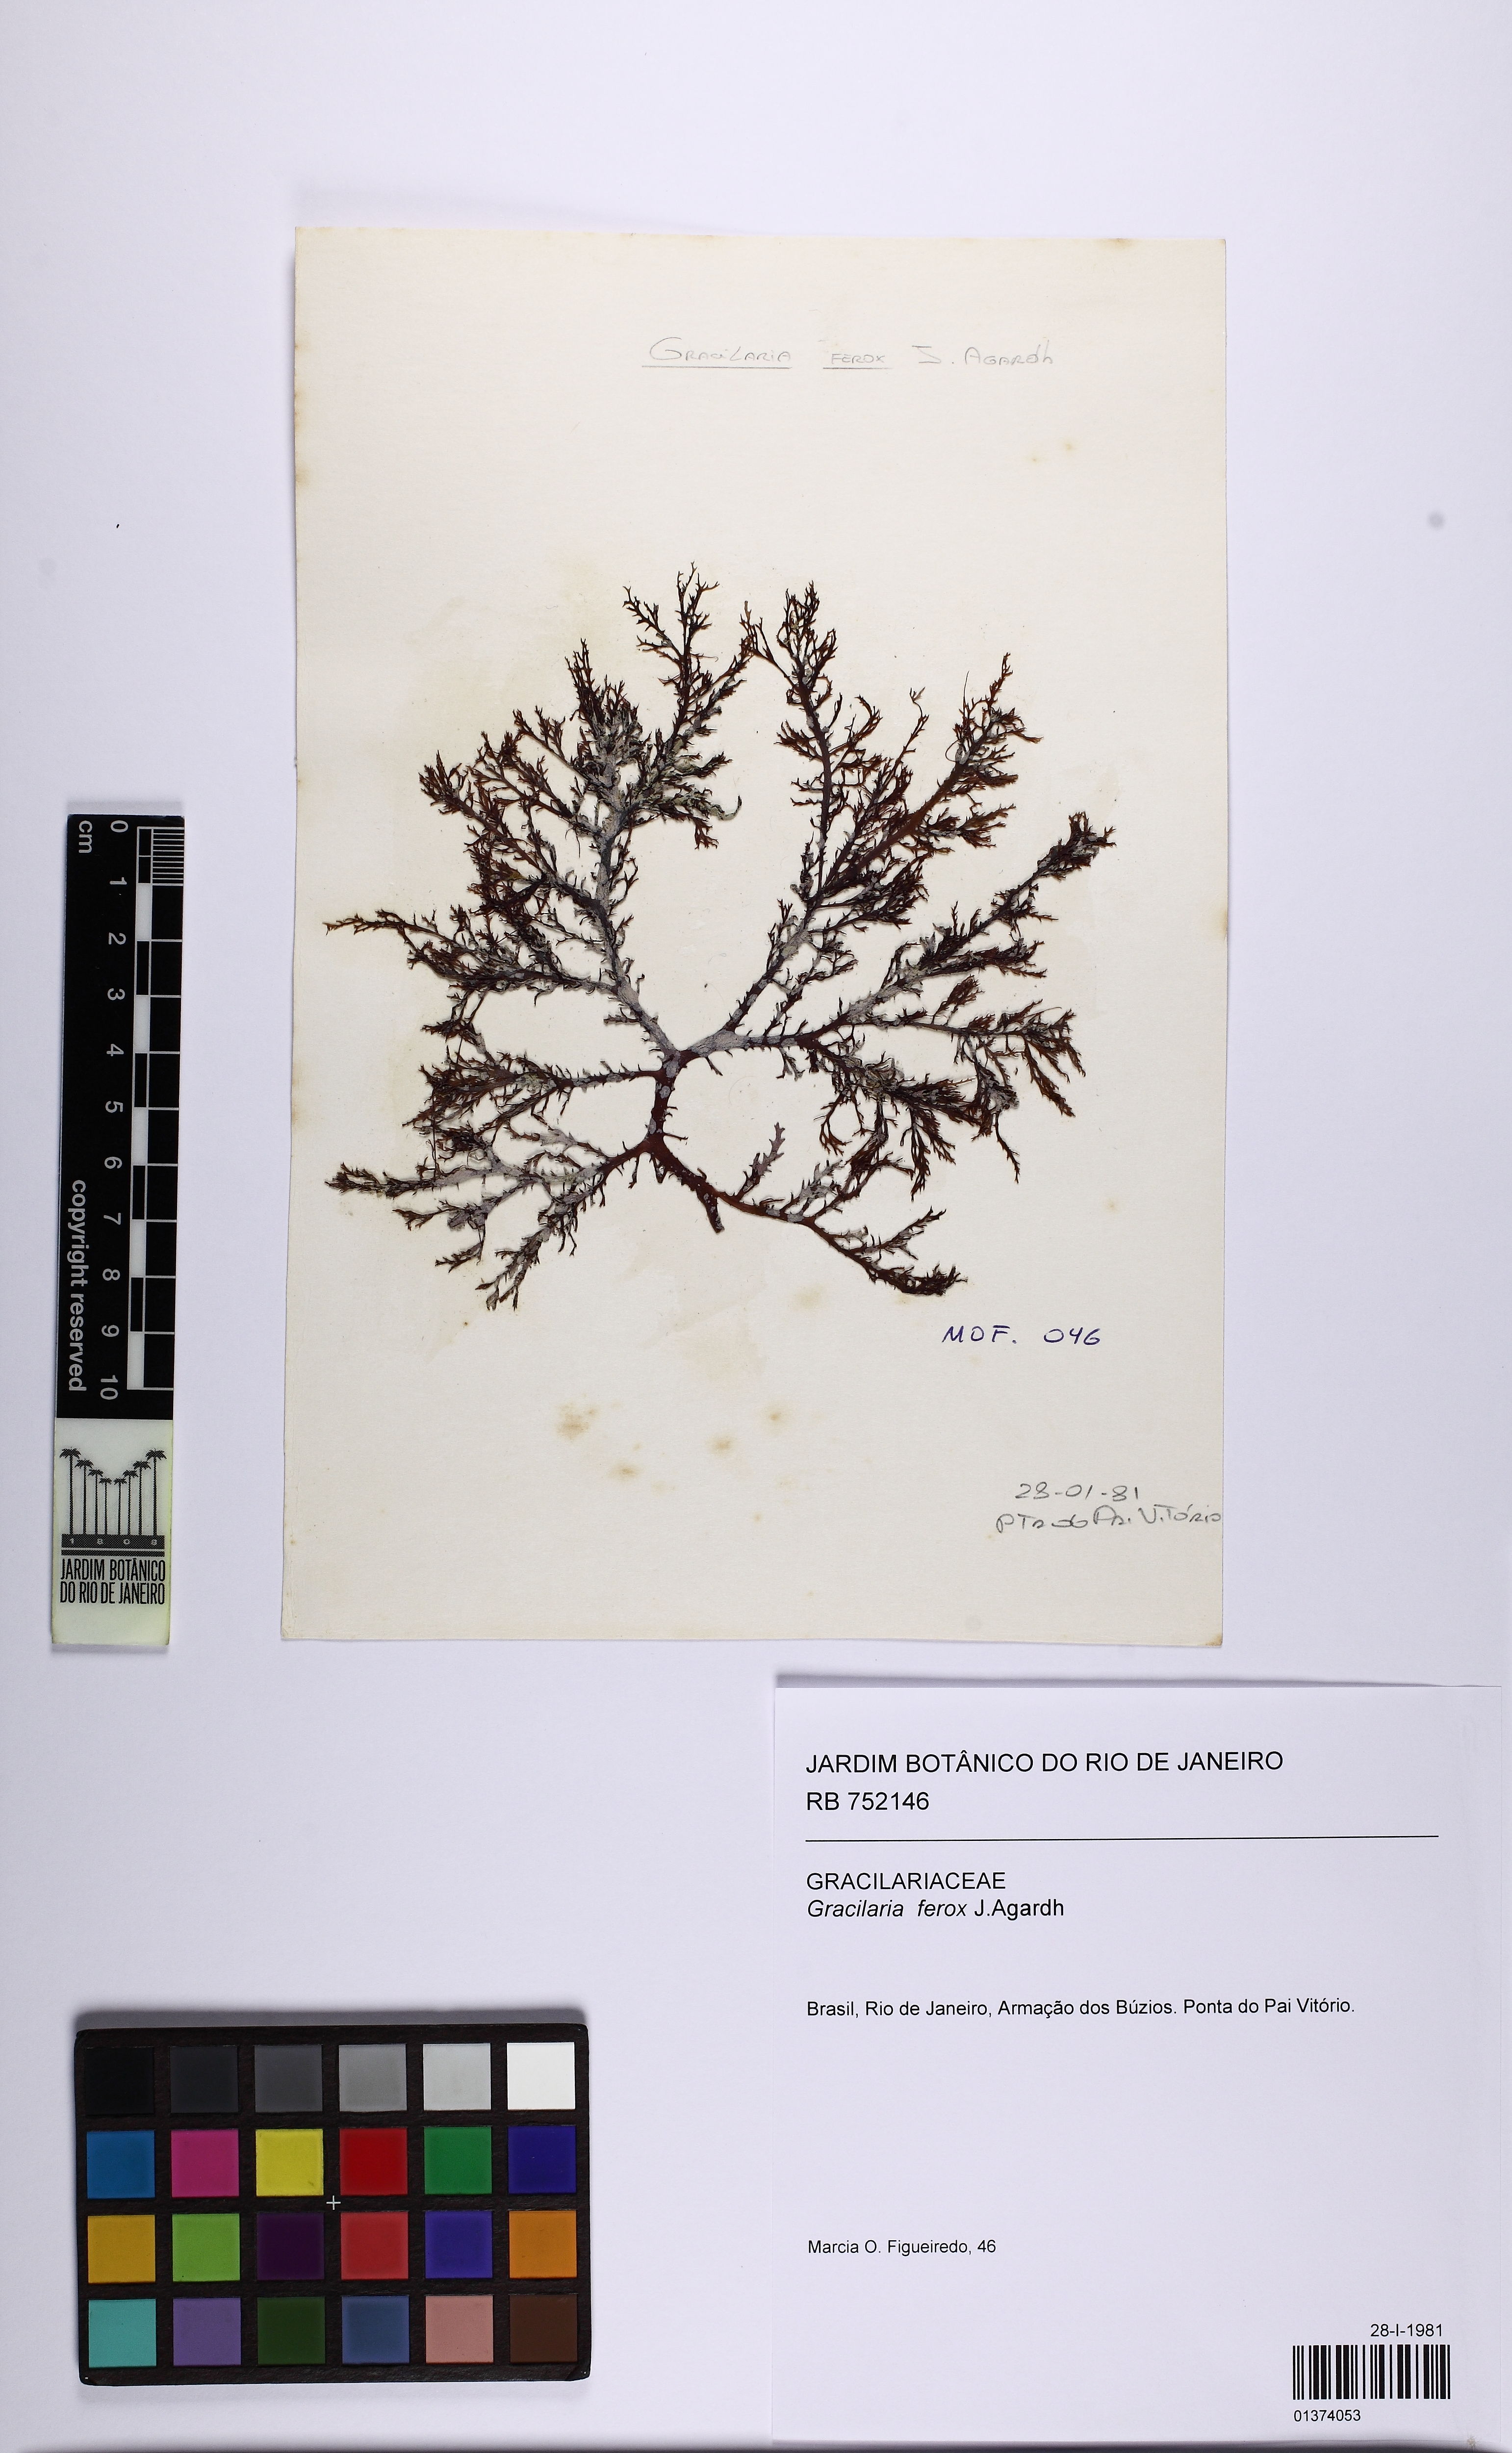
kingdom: Plantae
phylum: Rhodophyta
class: Florideophyceae
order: Gracilariales
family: Gracilariaceae
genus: Gracilaria
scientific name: Gracilaria ferox
